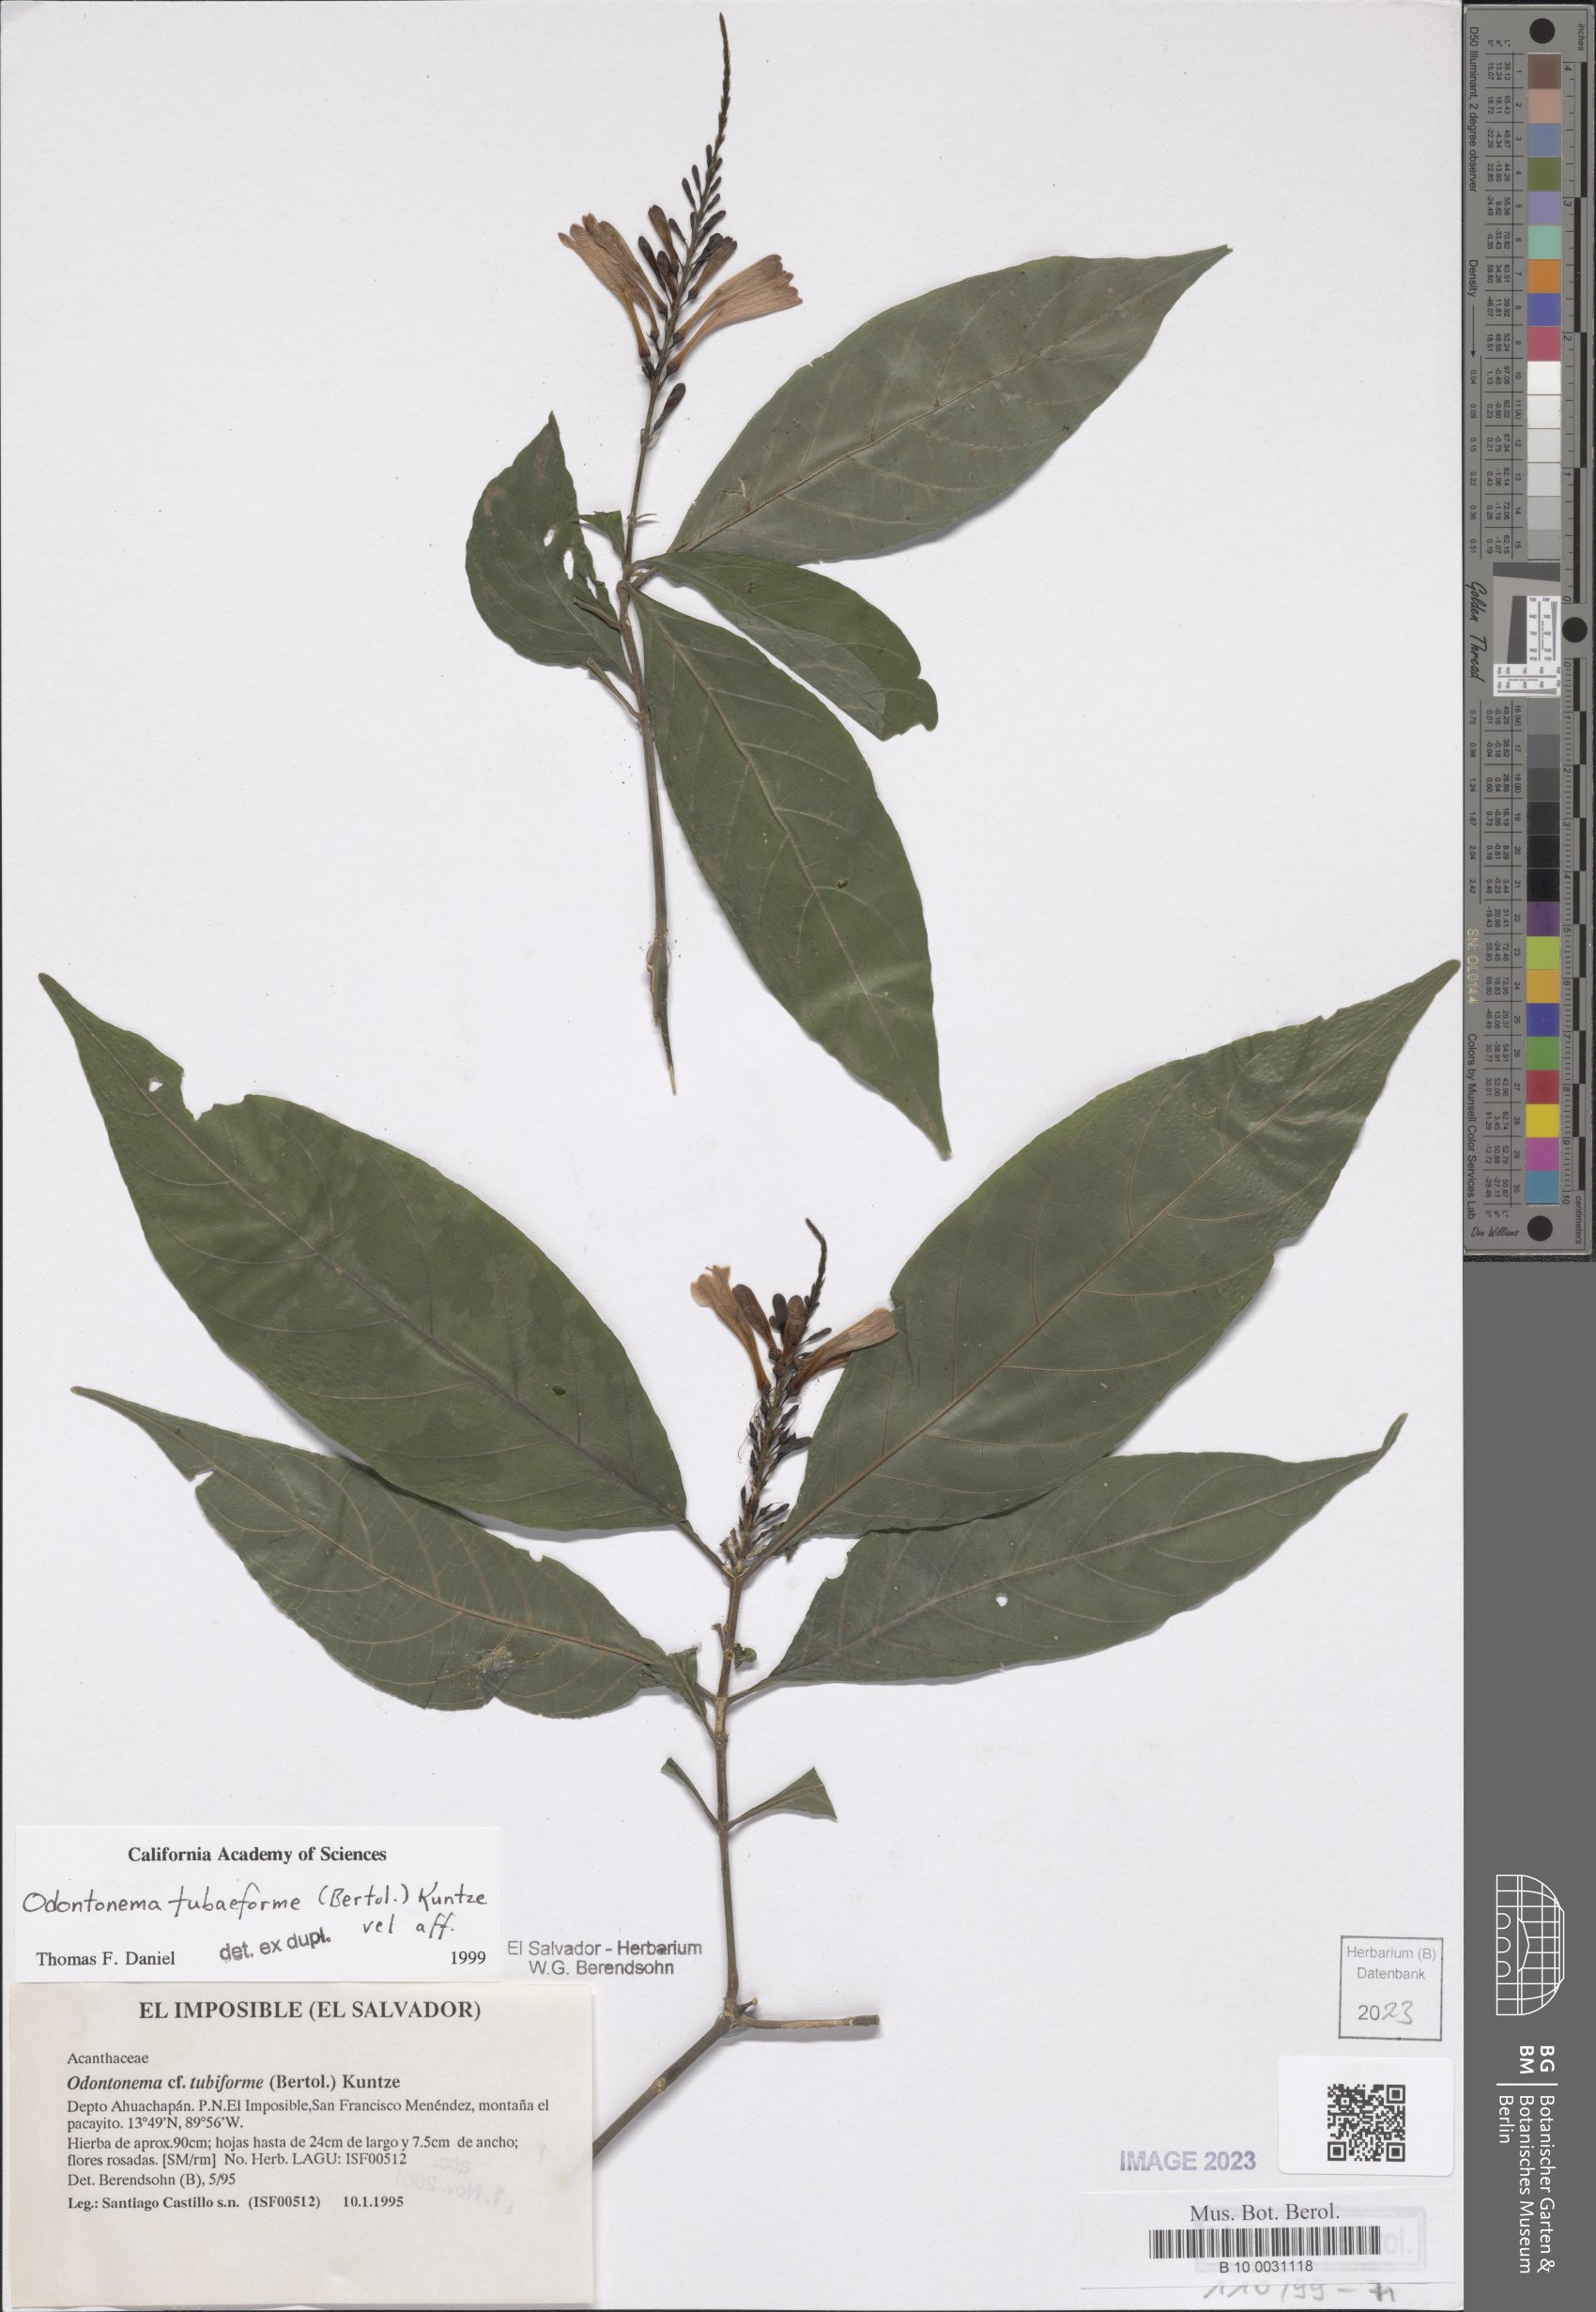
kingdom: Plantae
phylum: Tracheophyta
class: Magnoliopsida
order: Lamiales
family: Acanthaceae
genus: Odontonema
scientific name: Odontonema tubaeforme
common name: Firespike
